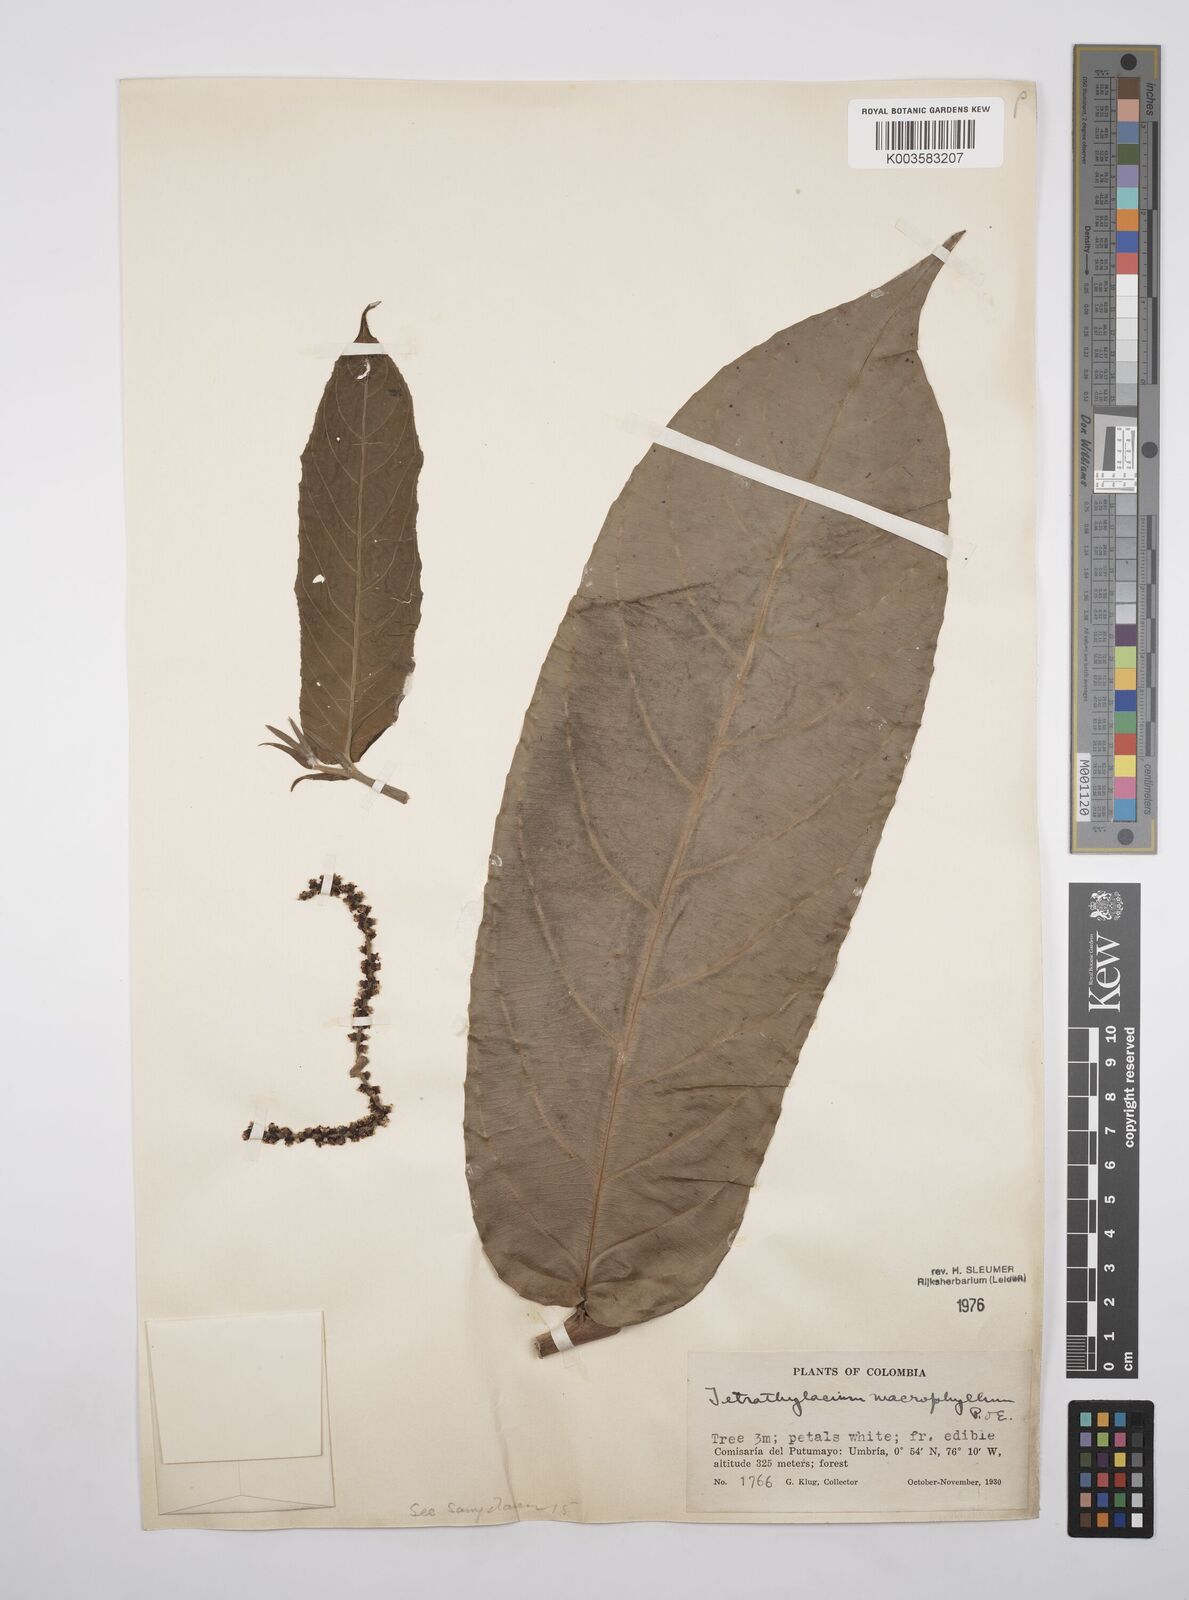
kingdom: Plantae
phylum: Tracheophyta
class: Magnoliopsida
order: Malpighiales
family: Salicaceae
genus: Tetrathylacium
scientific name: Tetrathylacium macrophyllum
